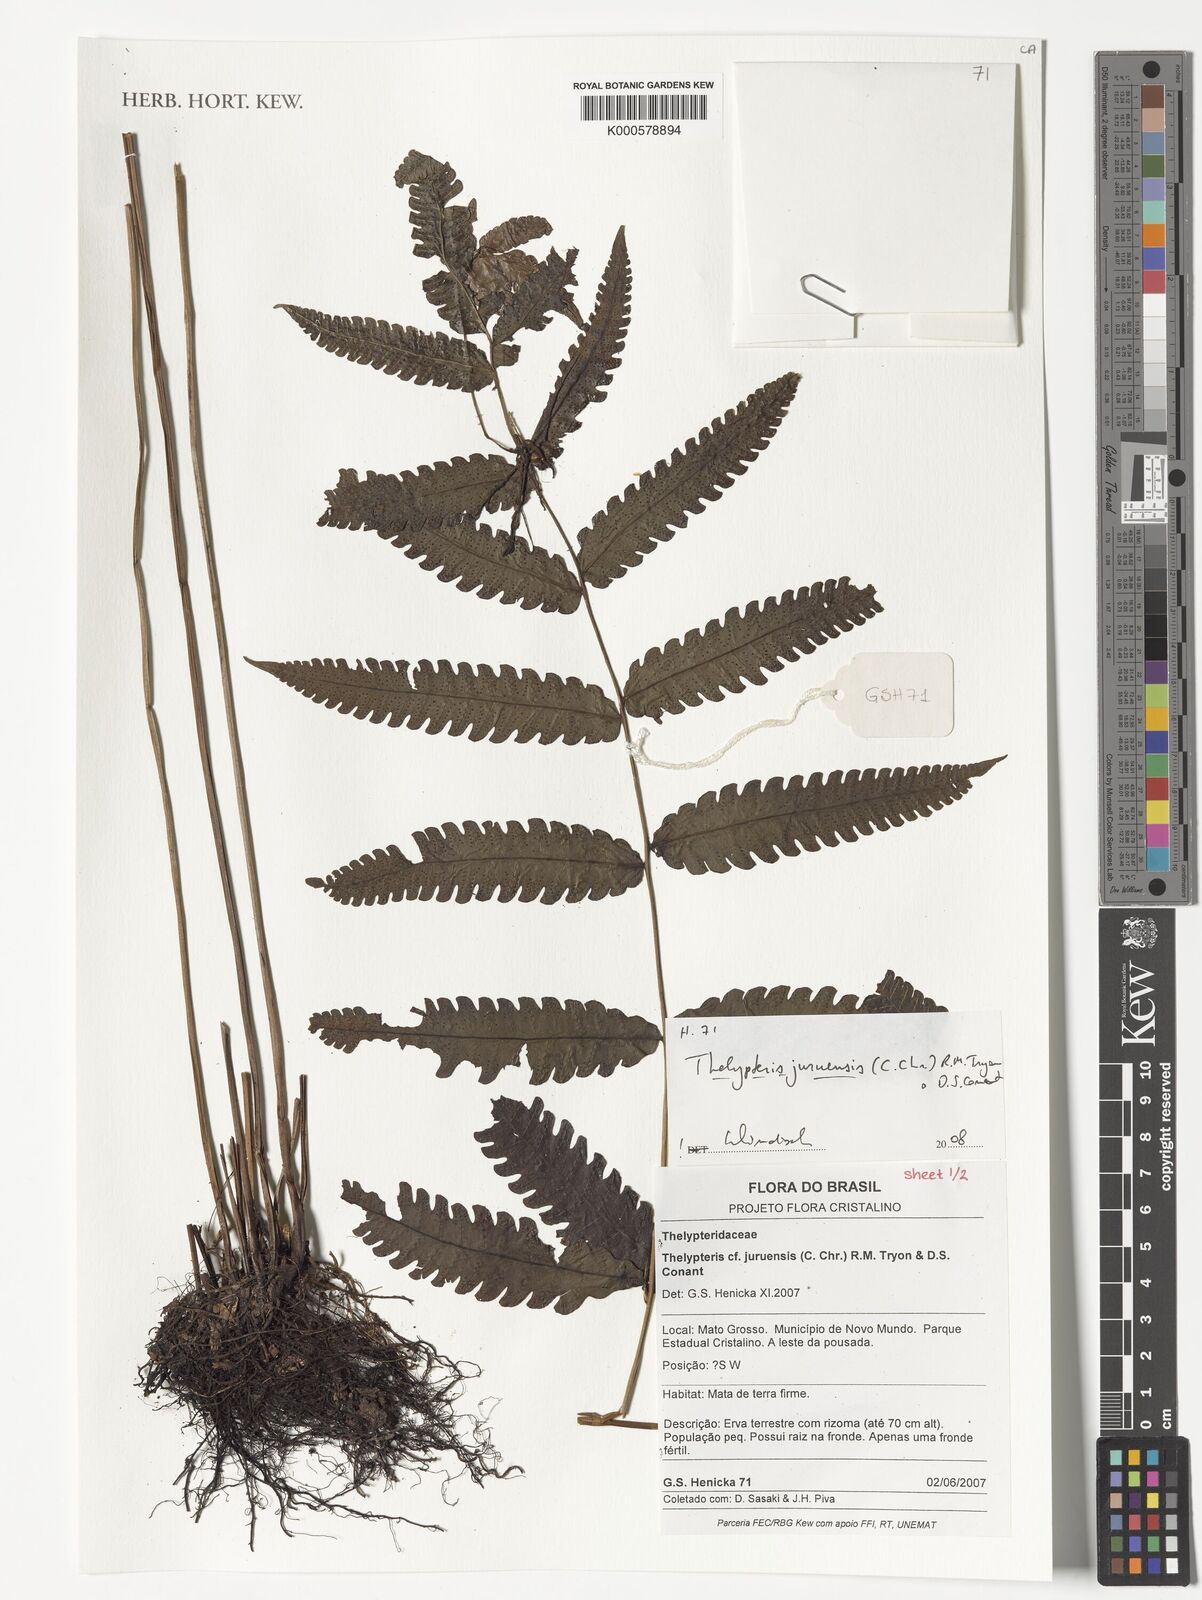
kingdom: Plantae
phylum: Tracheophyta
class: Polypodiopsida
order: Polypodiales
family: Thelypteridaceae
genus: Goniopteris
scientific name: Goniopteris juruensis
